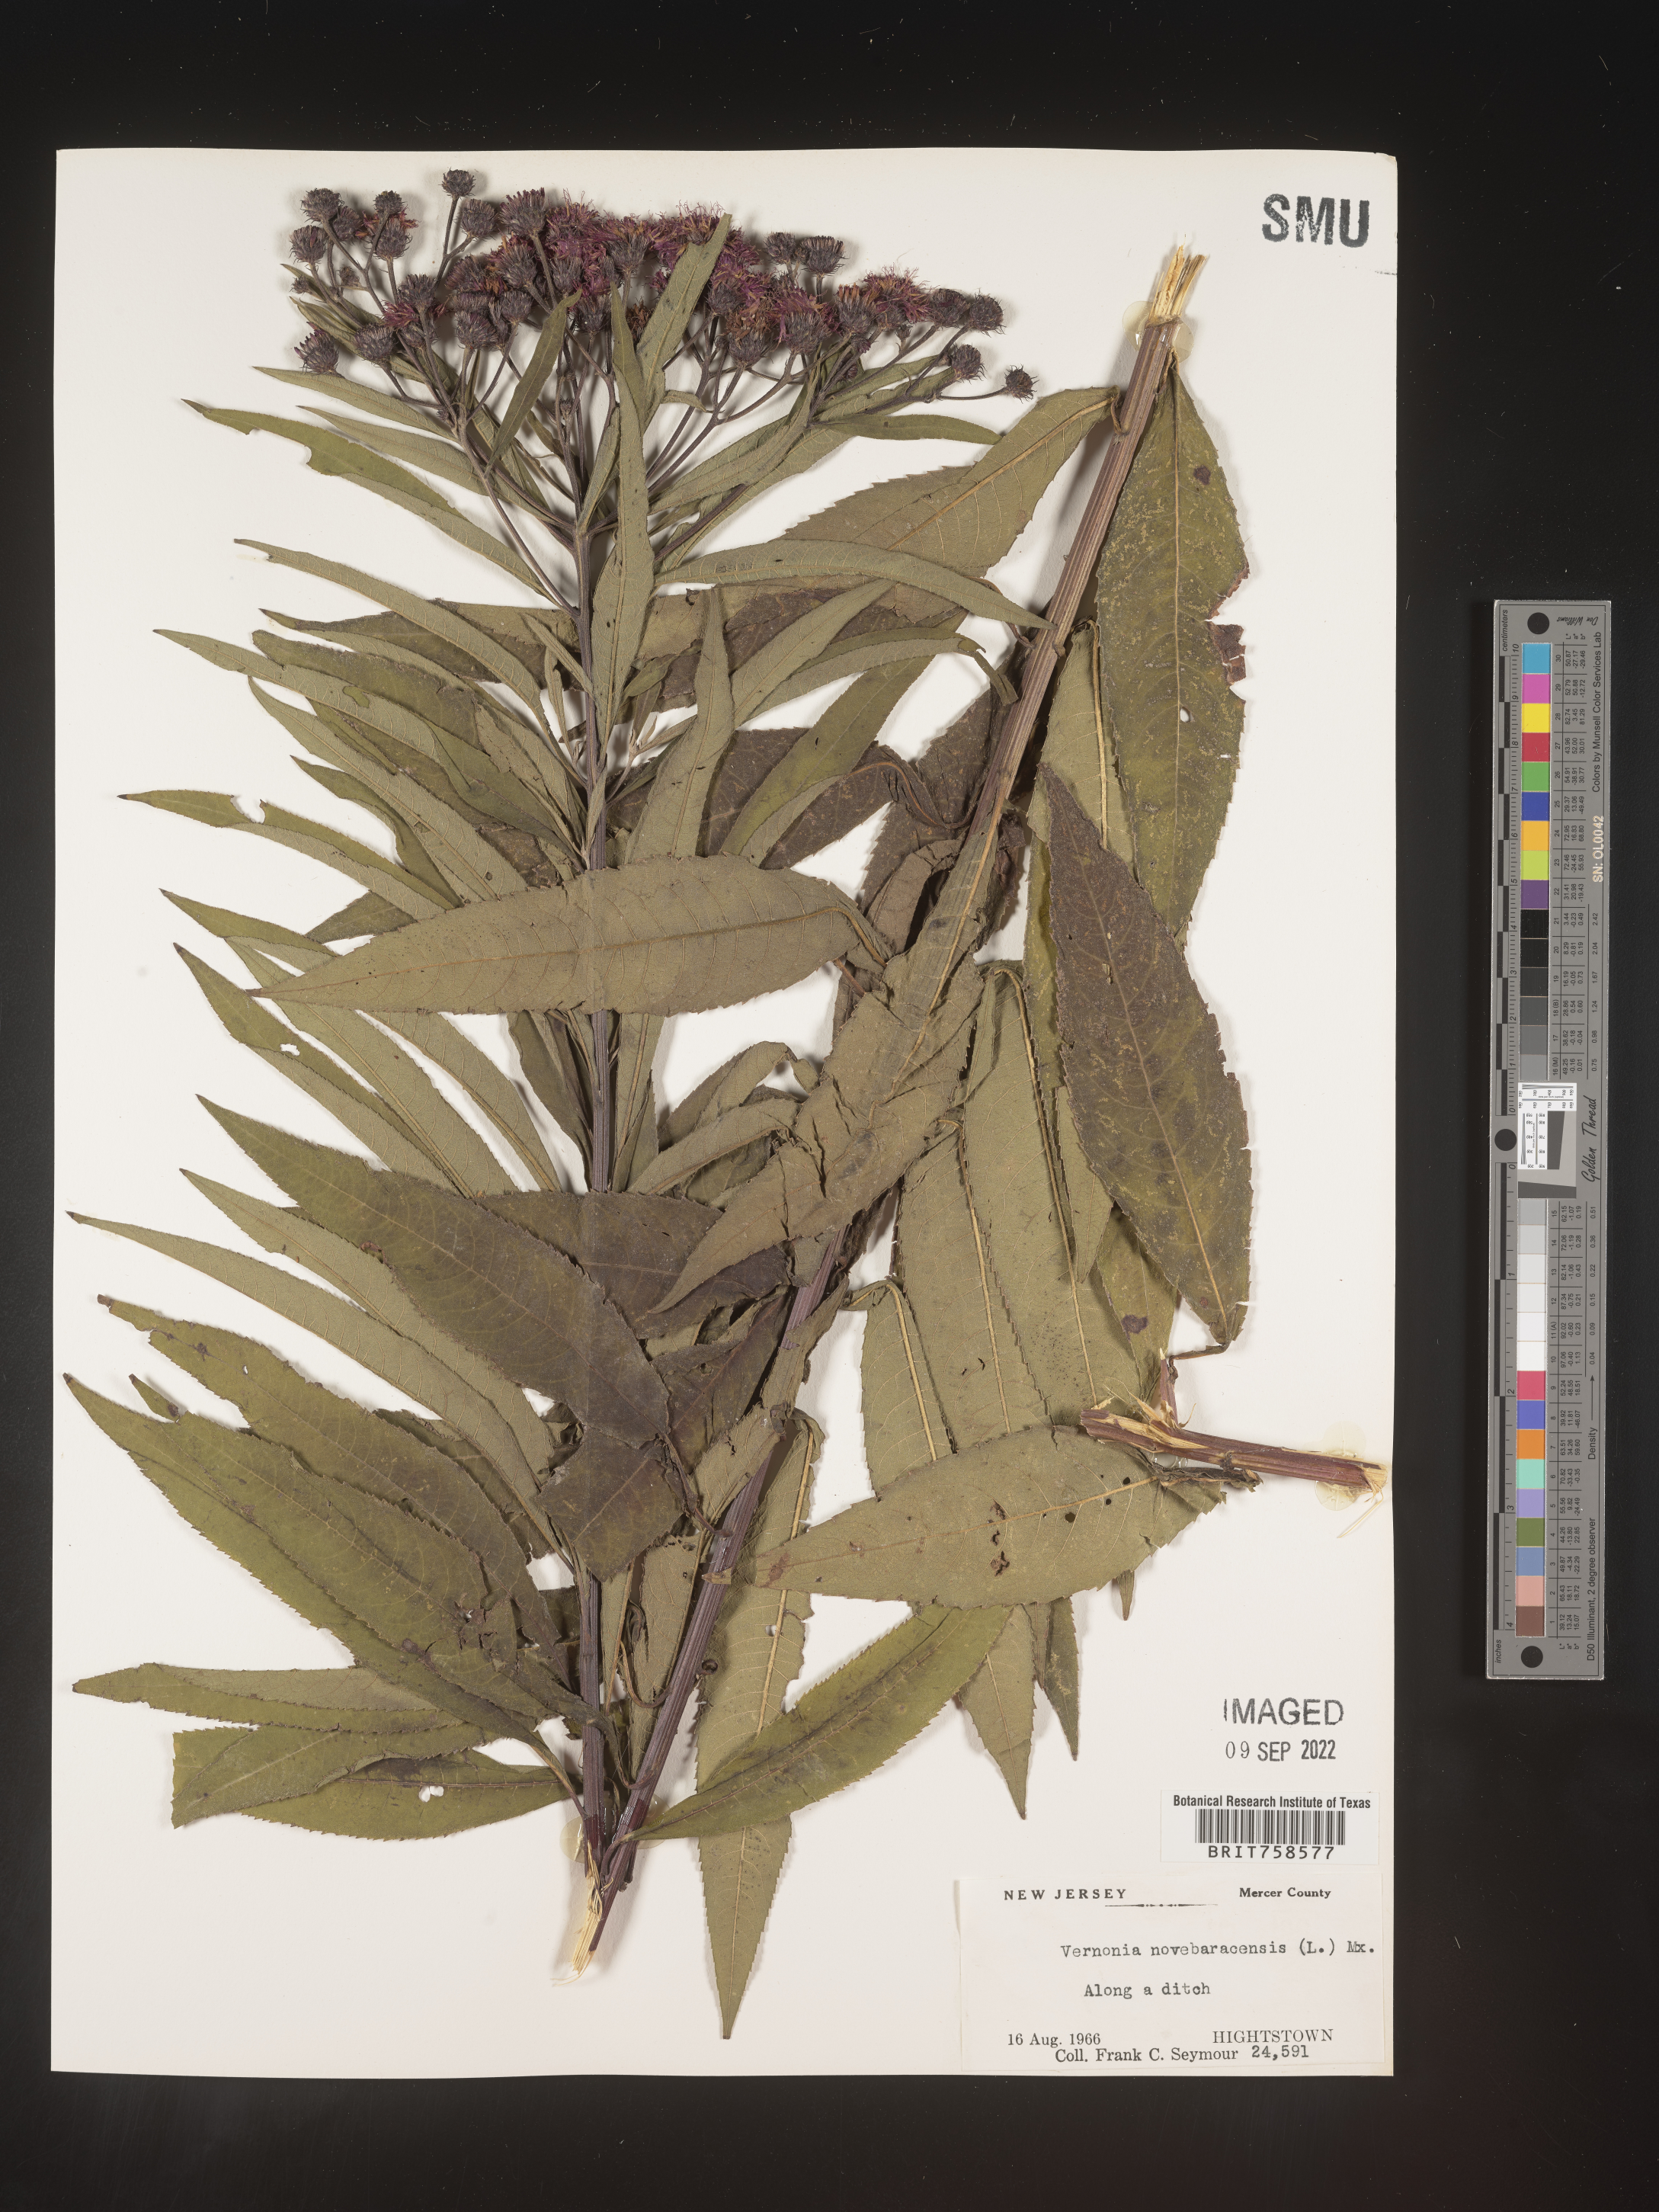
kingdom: Plantae
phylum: Tracheophyta
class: Magnoliopsida
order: Asterales
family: Asteraceae
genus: Vernonia
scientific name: Vernonia noveboracensis
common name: New york ironweed
